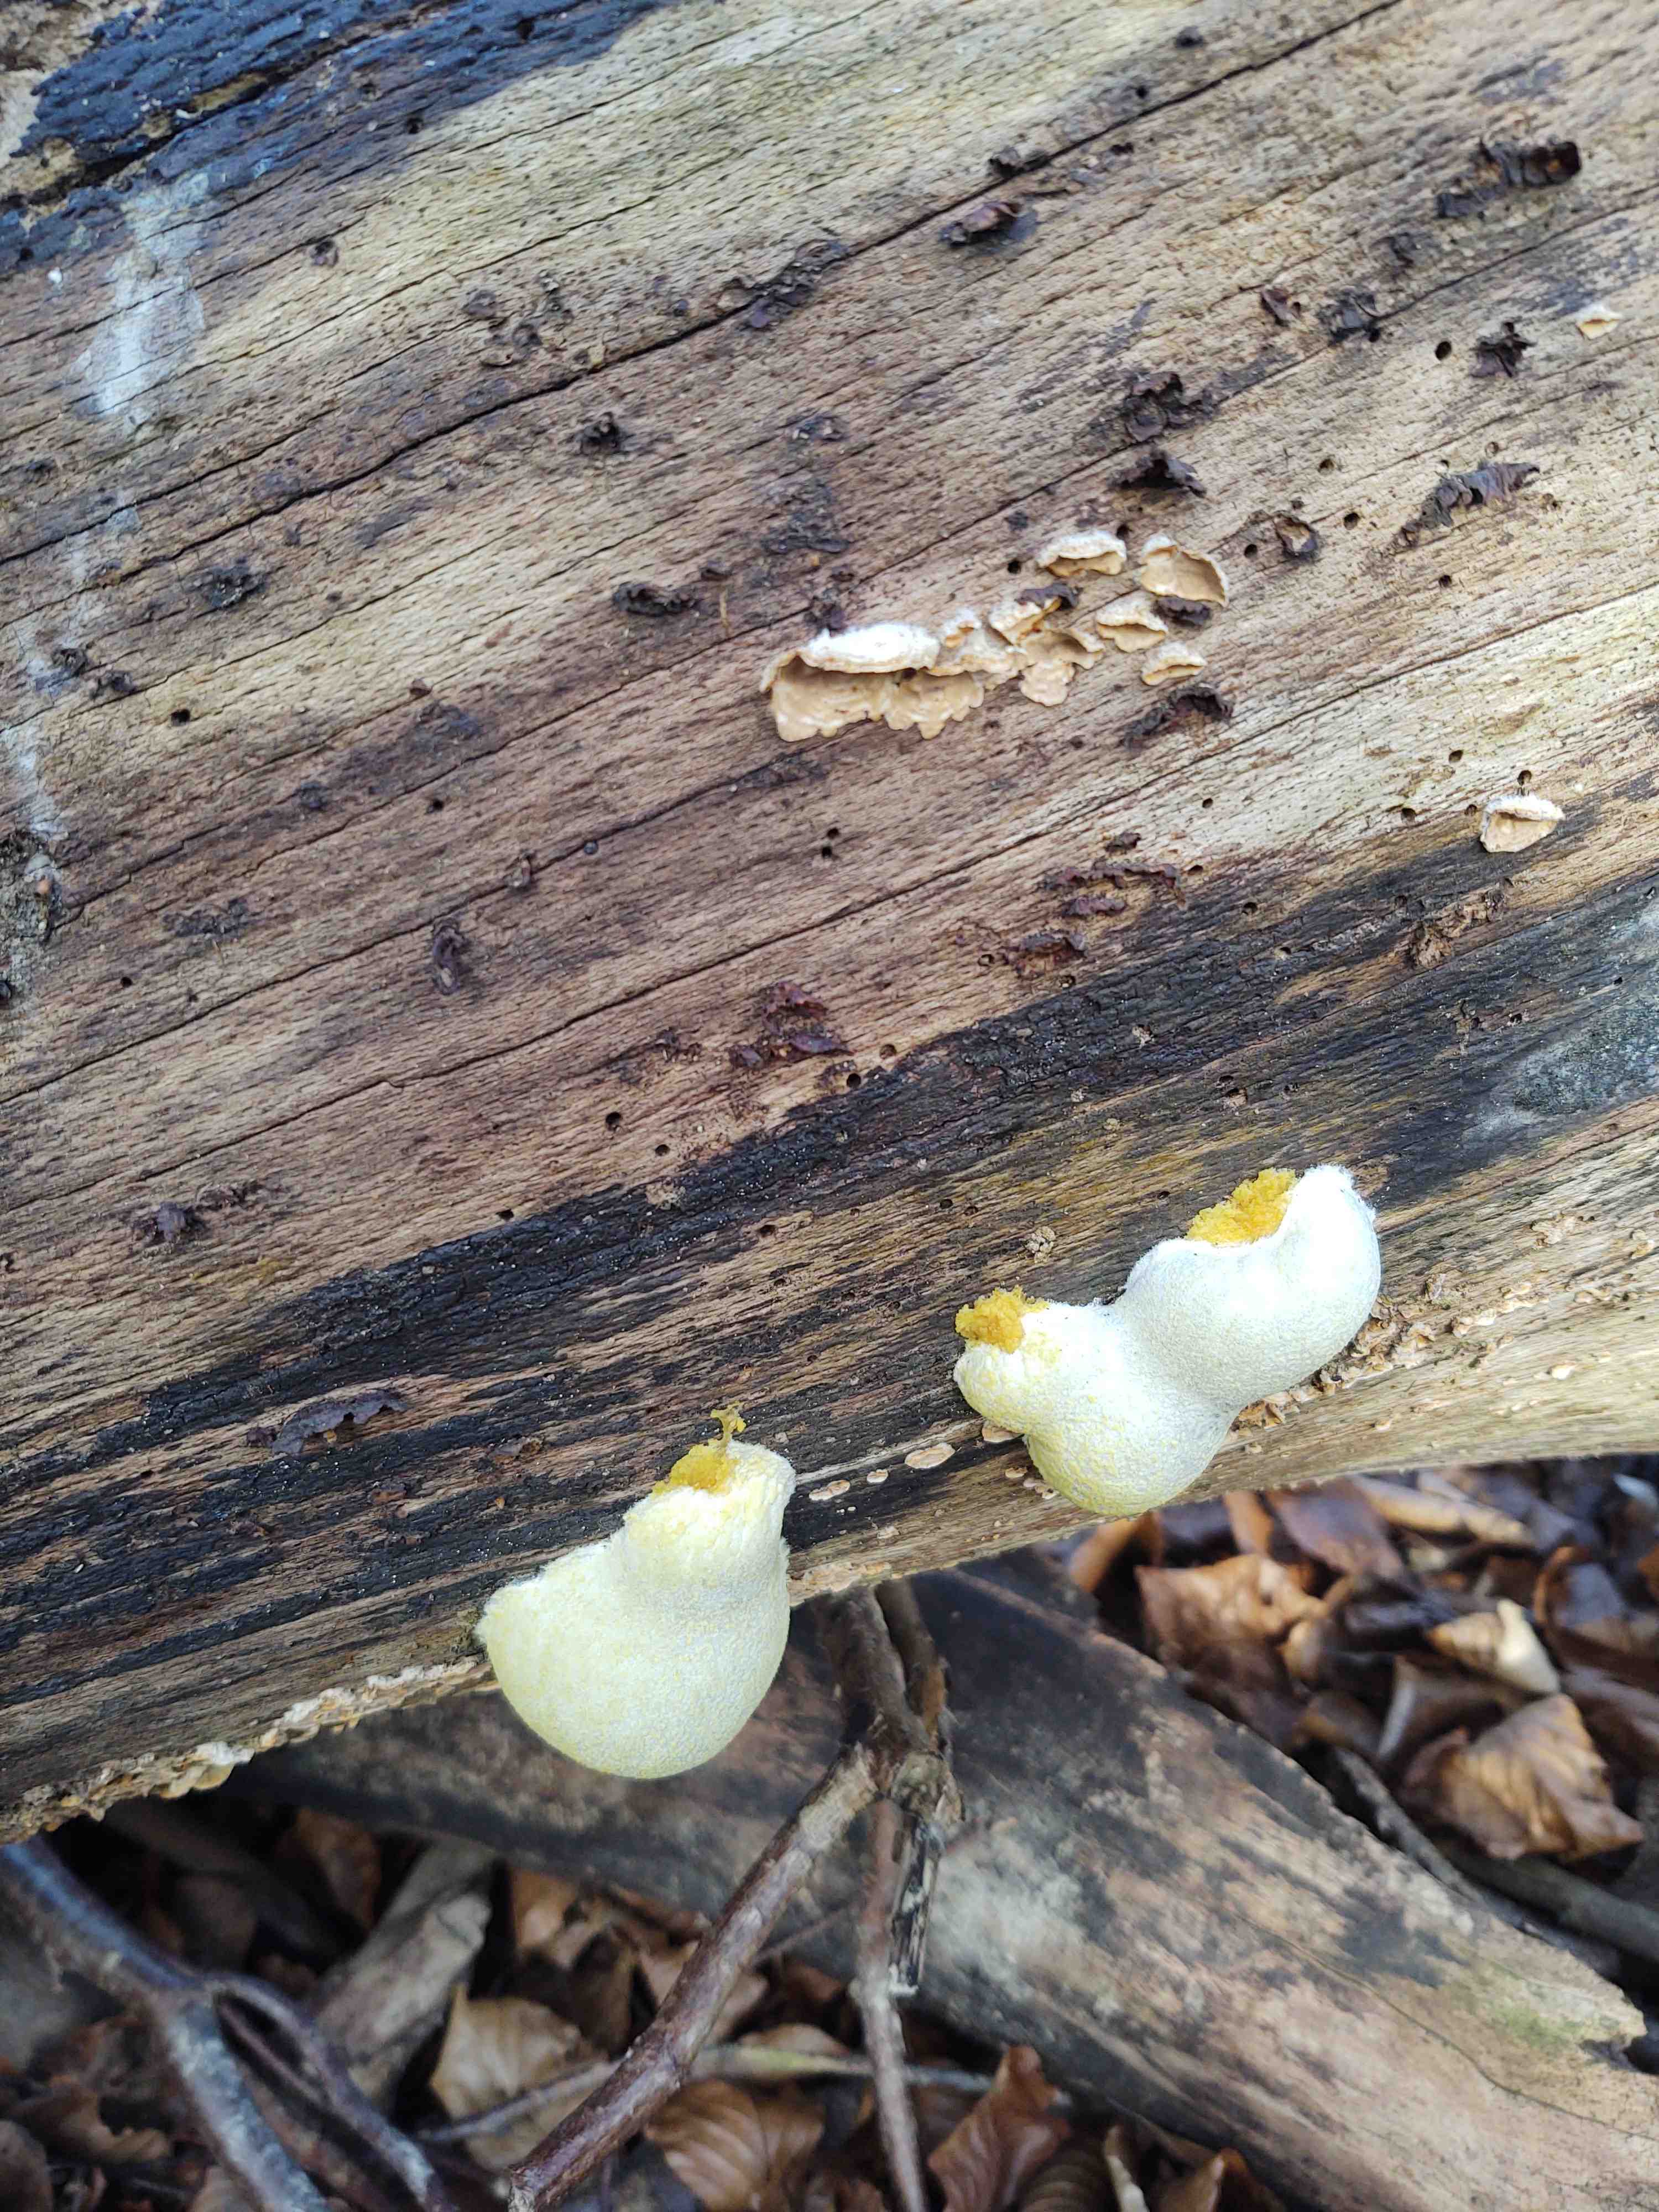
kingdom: Protozoa
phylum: Mycetozoa
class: Myxomycetes
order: Cribrariales
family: Tubiferaceae
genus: Reticularia
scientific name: Reticularia lycoperdon
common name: skinnende støvpude
